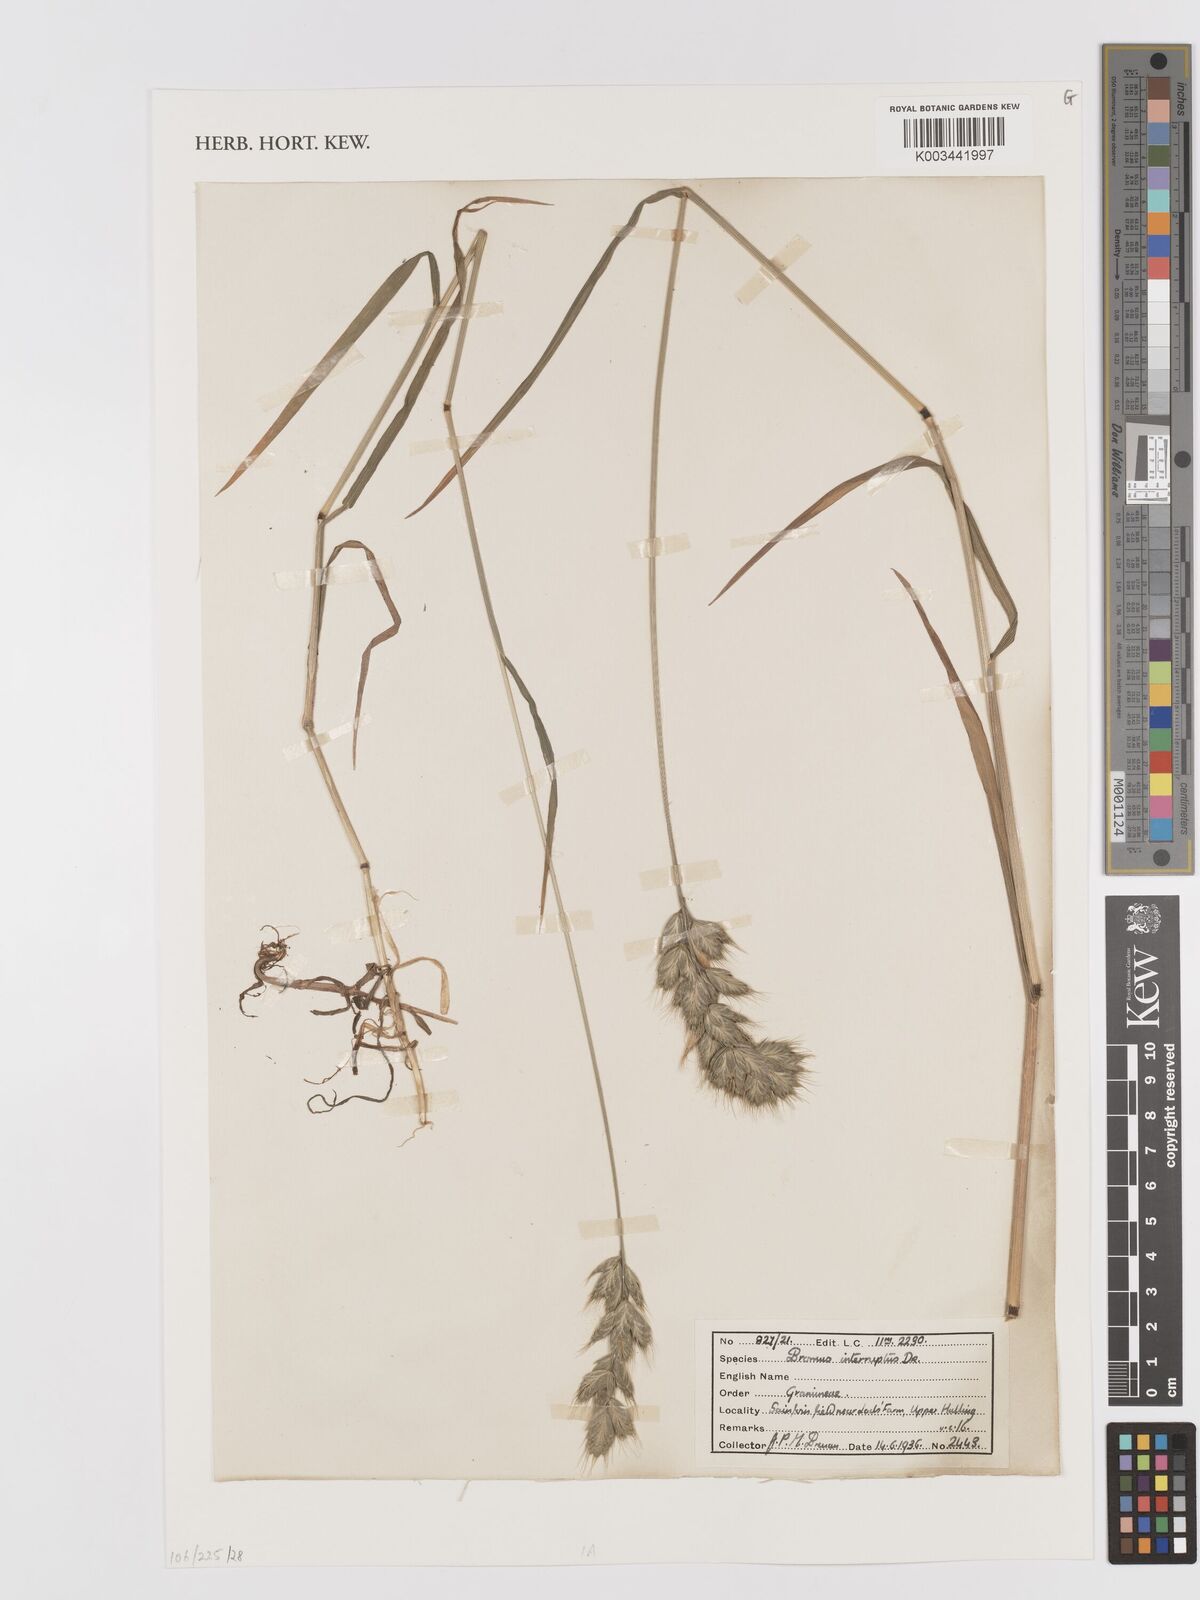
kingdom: Plantae
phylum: Tracheophyta
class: Liliopsida
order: Poales
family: Poaceae
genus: Bromus
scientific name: Bromus interruptus
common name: Interrupted brome
